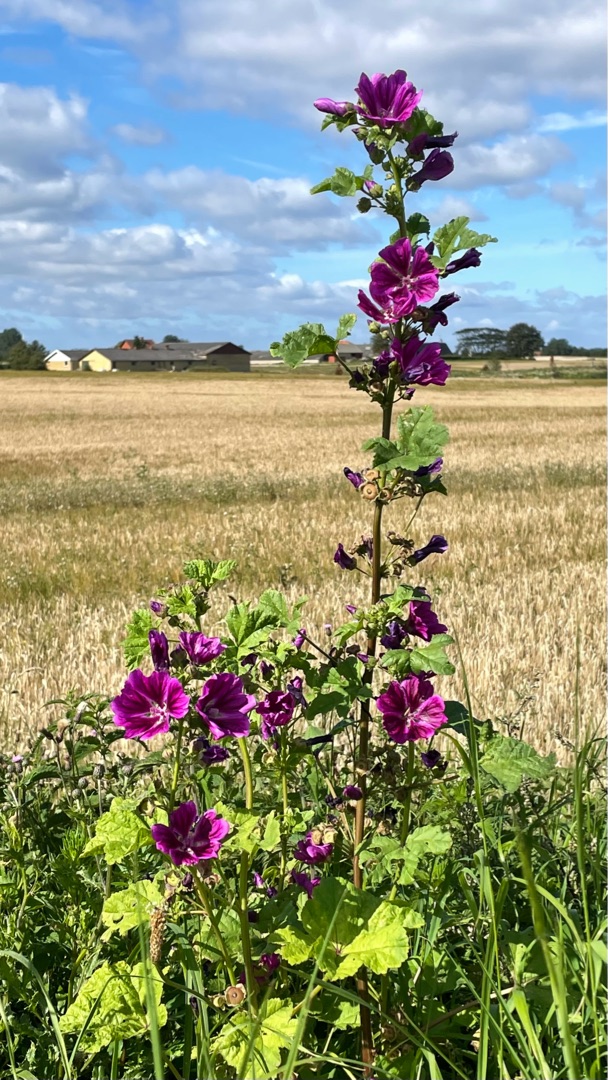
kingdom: Plantae
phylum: Tracheophyta
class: Magnoliopsida
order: Malvales
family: Malvaceae
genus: Malva
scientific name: Malva sylvestris
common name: Stor katost
